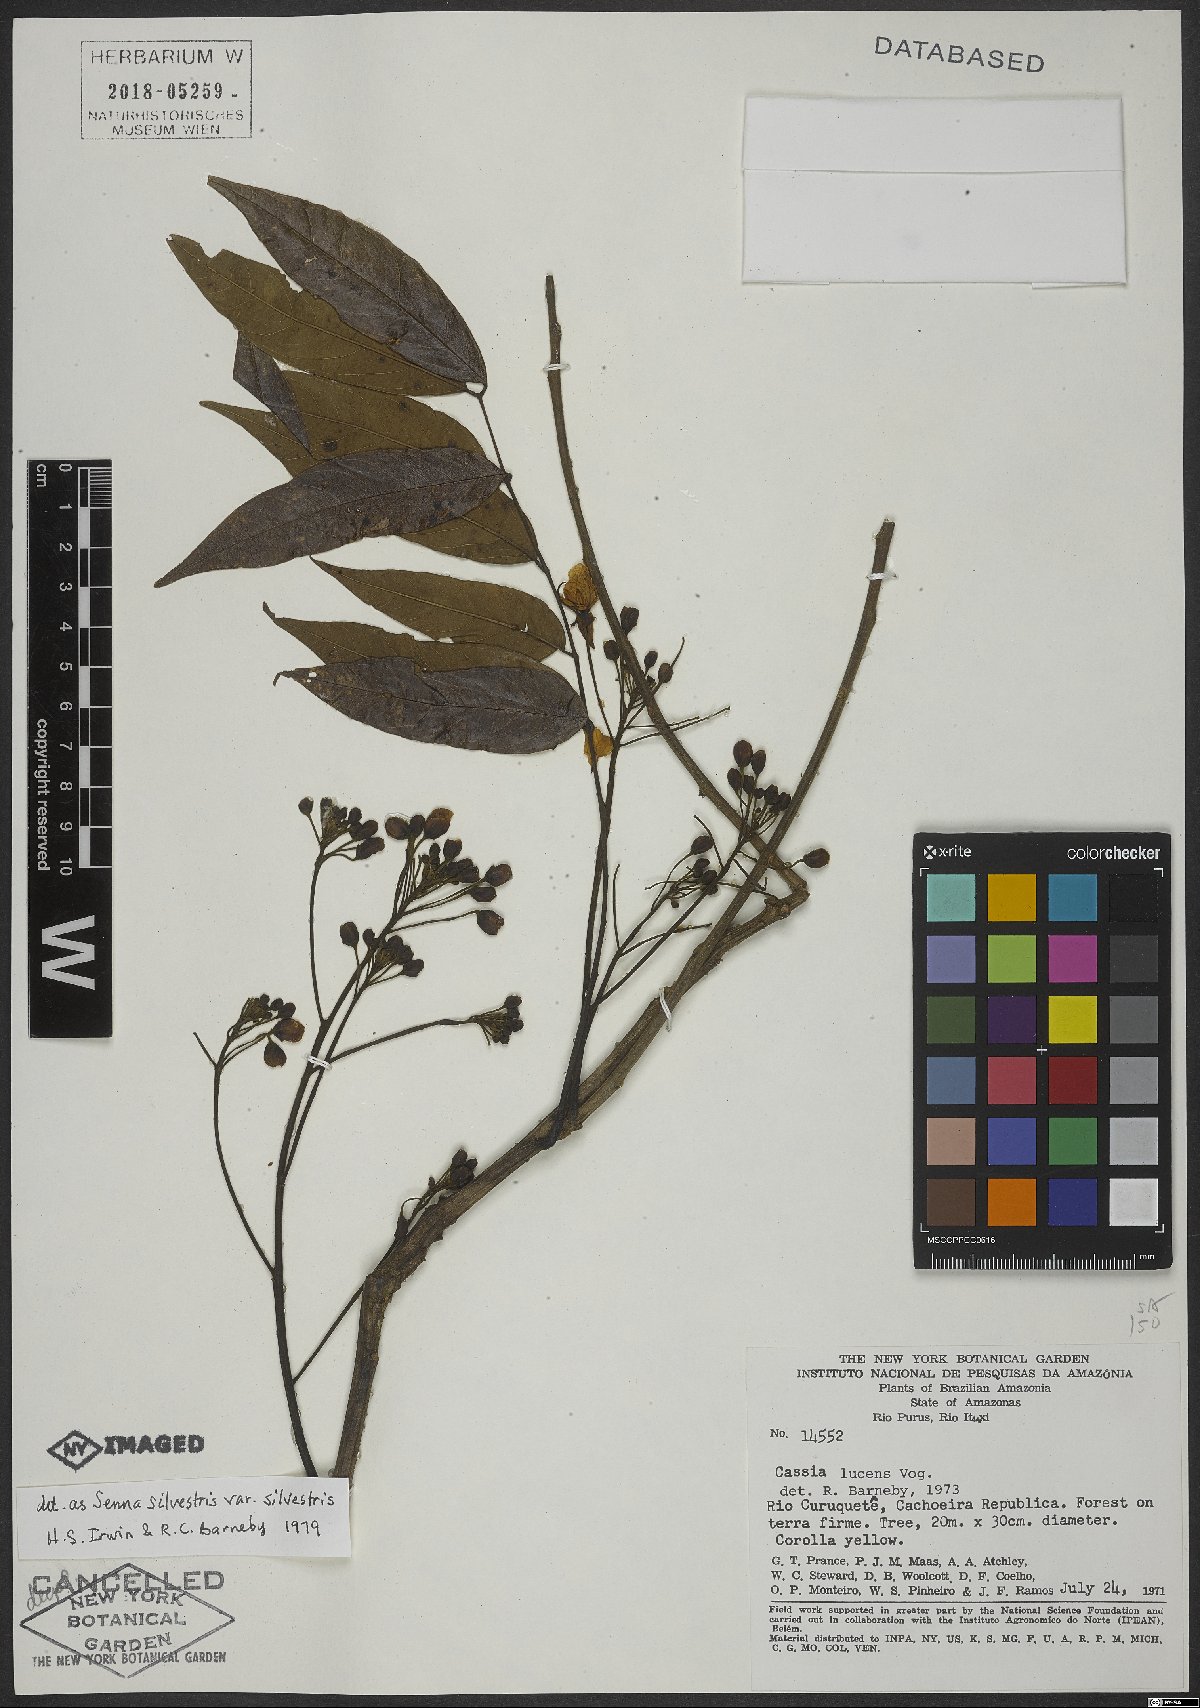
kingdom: Plantae
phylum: Tracheophyta
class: Magnoliopsida
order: Fabales
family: Fabaceae
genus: Senna
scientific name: Senna silvestris
